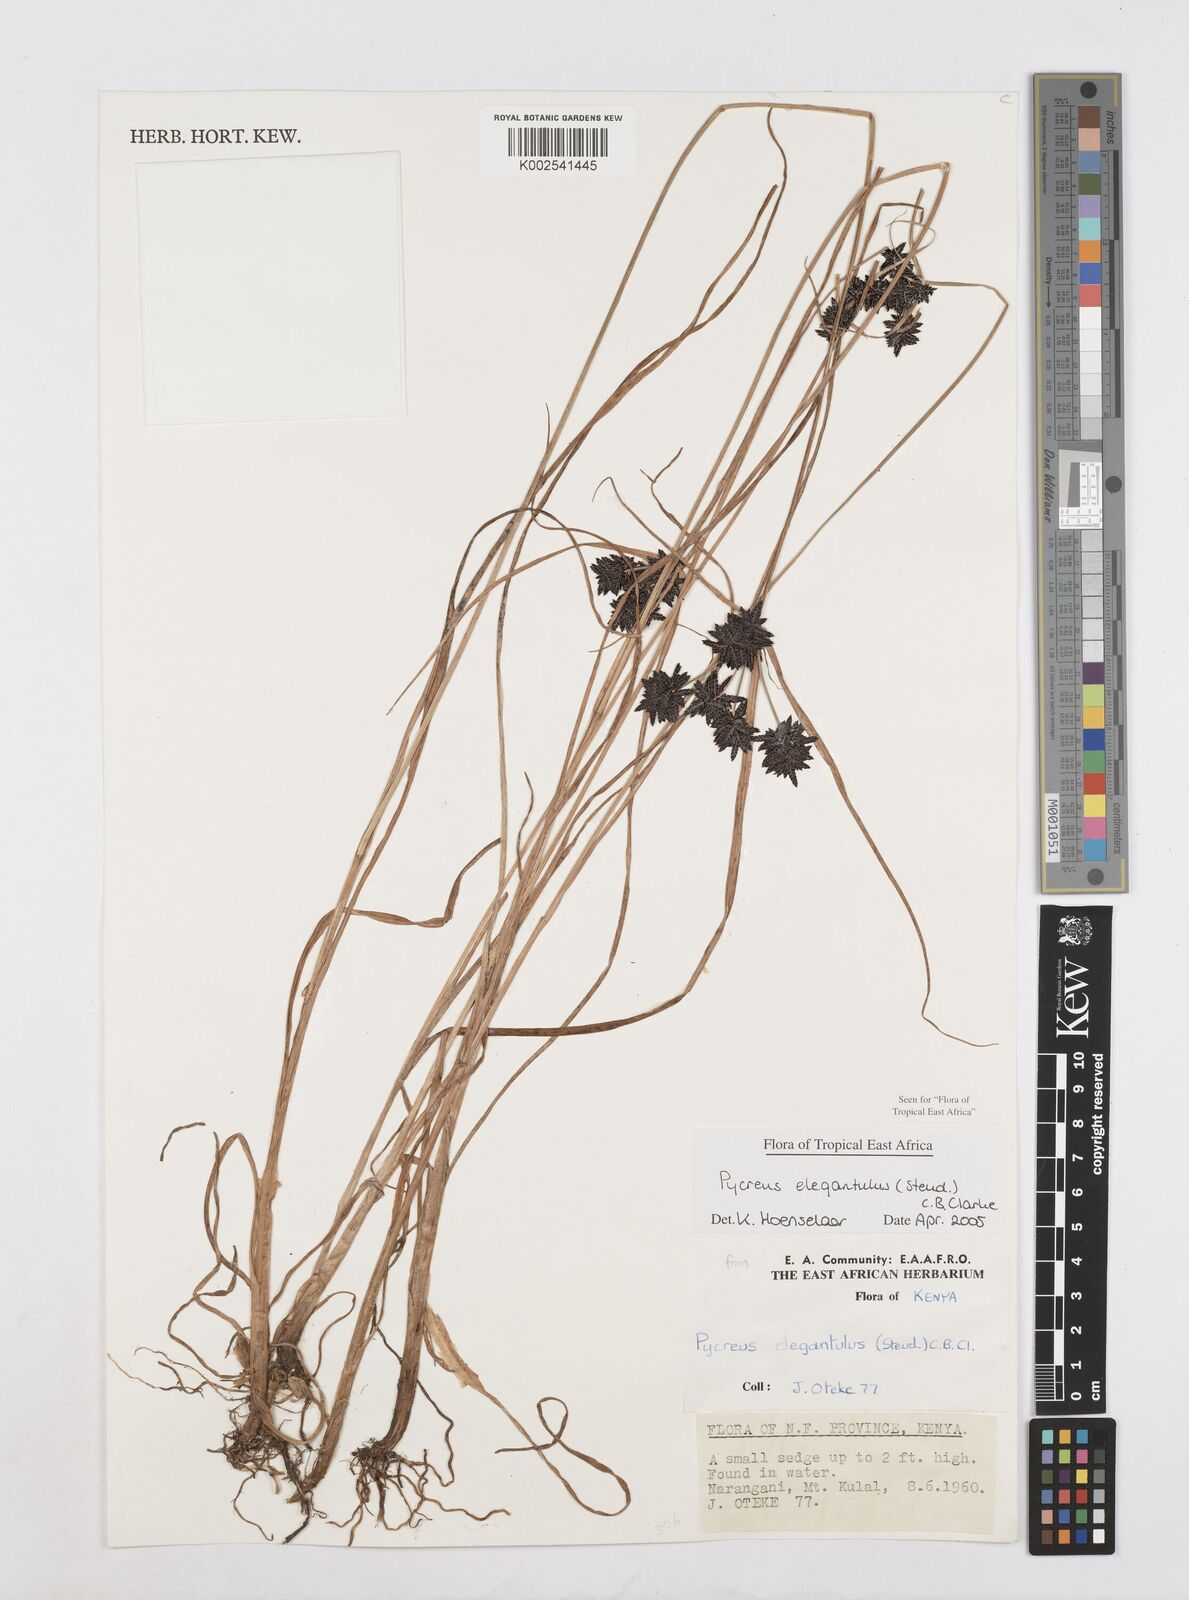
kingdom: Plantae
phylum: Tracheophyta
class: Liliopsida
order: Poales
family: Cyperaceae
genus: Cyperus
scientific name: Cyperus elegantulus
